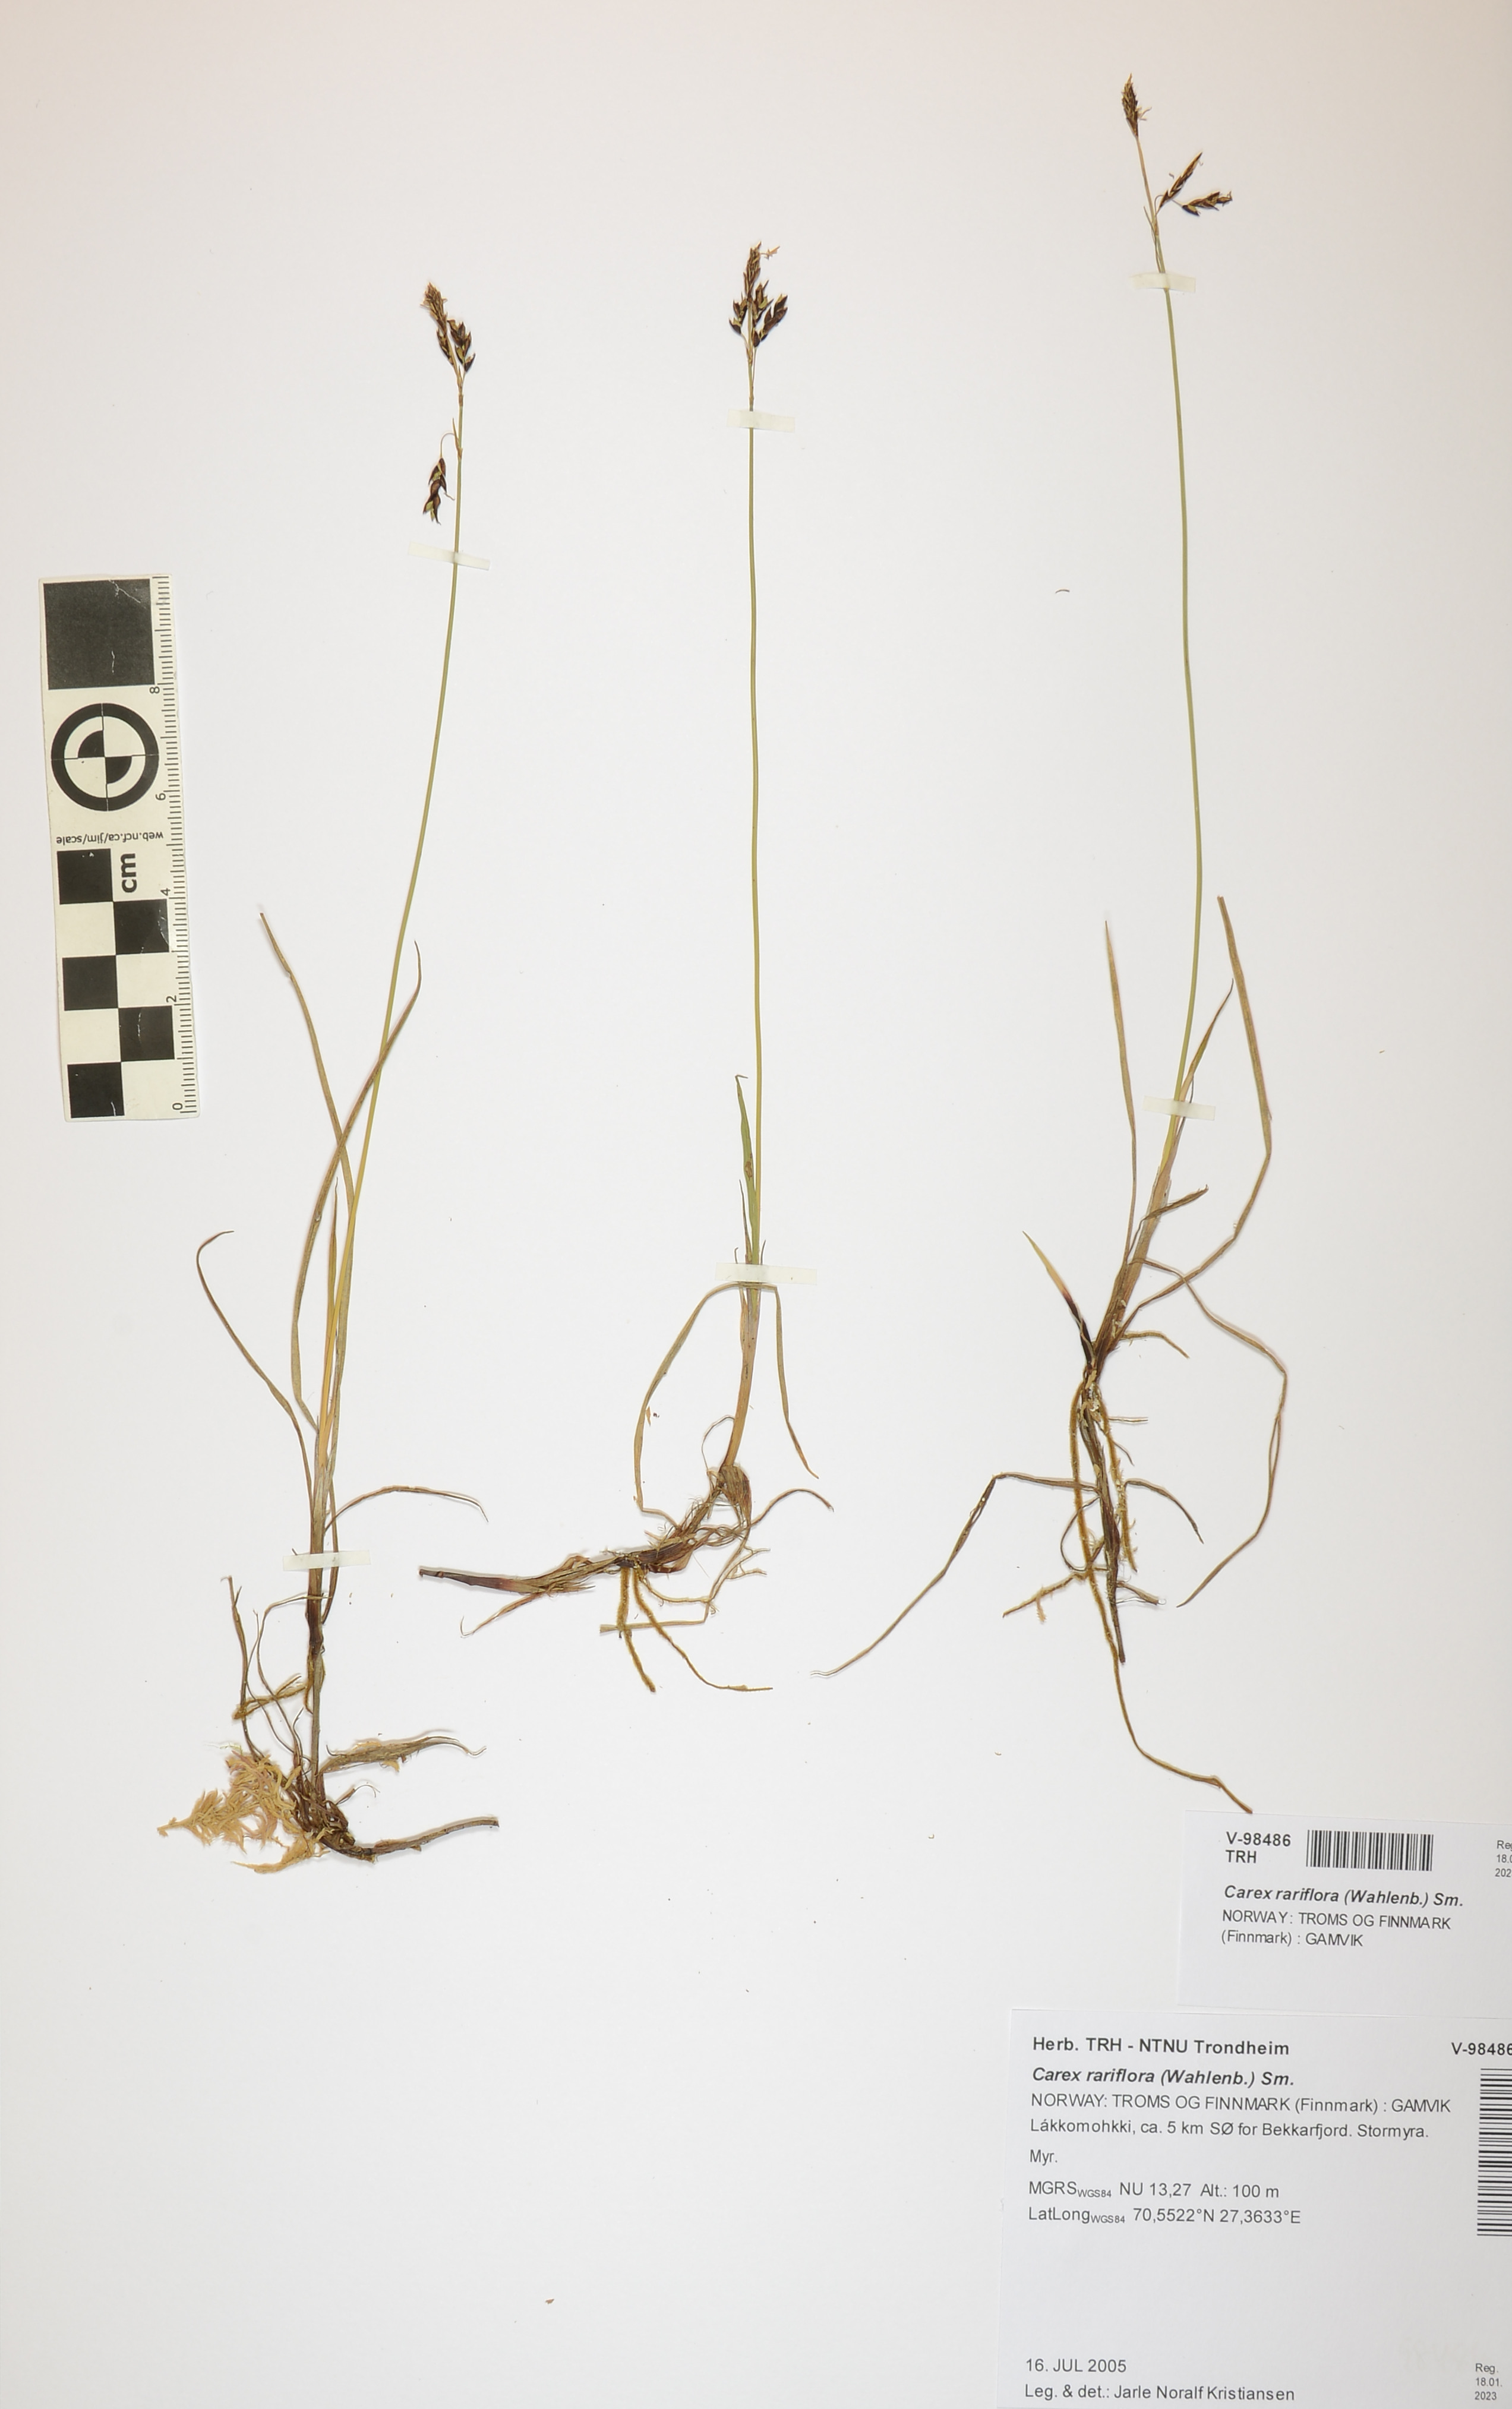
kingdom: Plantae
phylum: Tracheophyta
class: Liliopsida
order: Poales
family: Cyperaceae
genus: Carex
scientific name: Carex rariflora
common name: Loose-flowered alpine sedge
